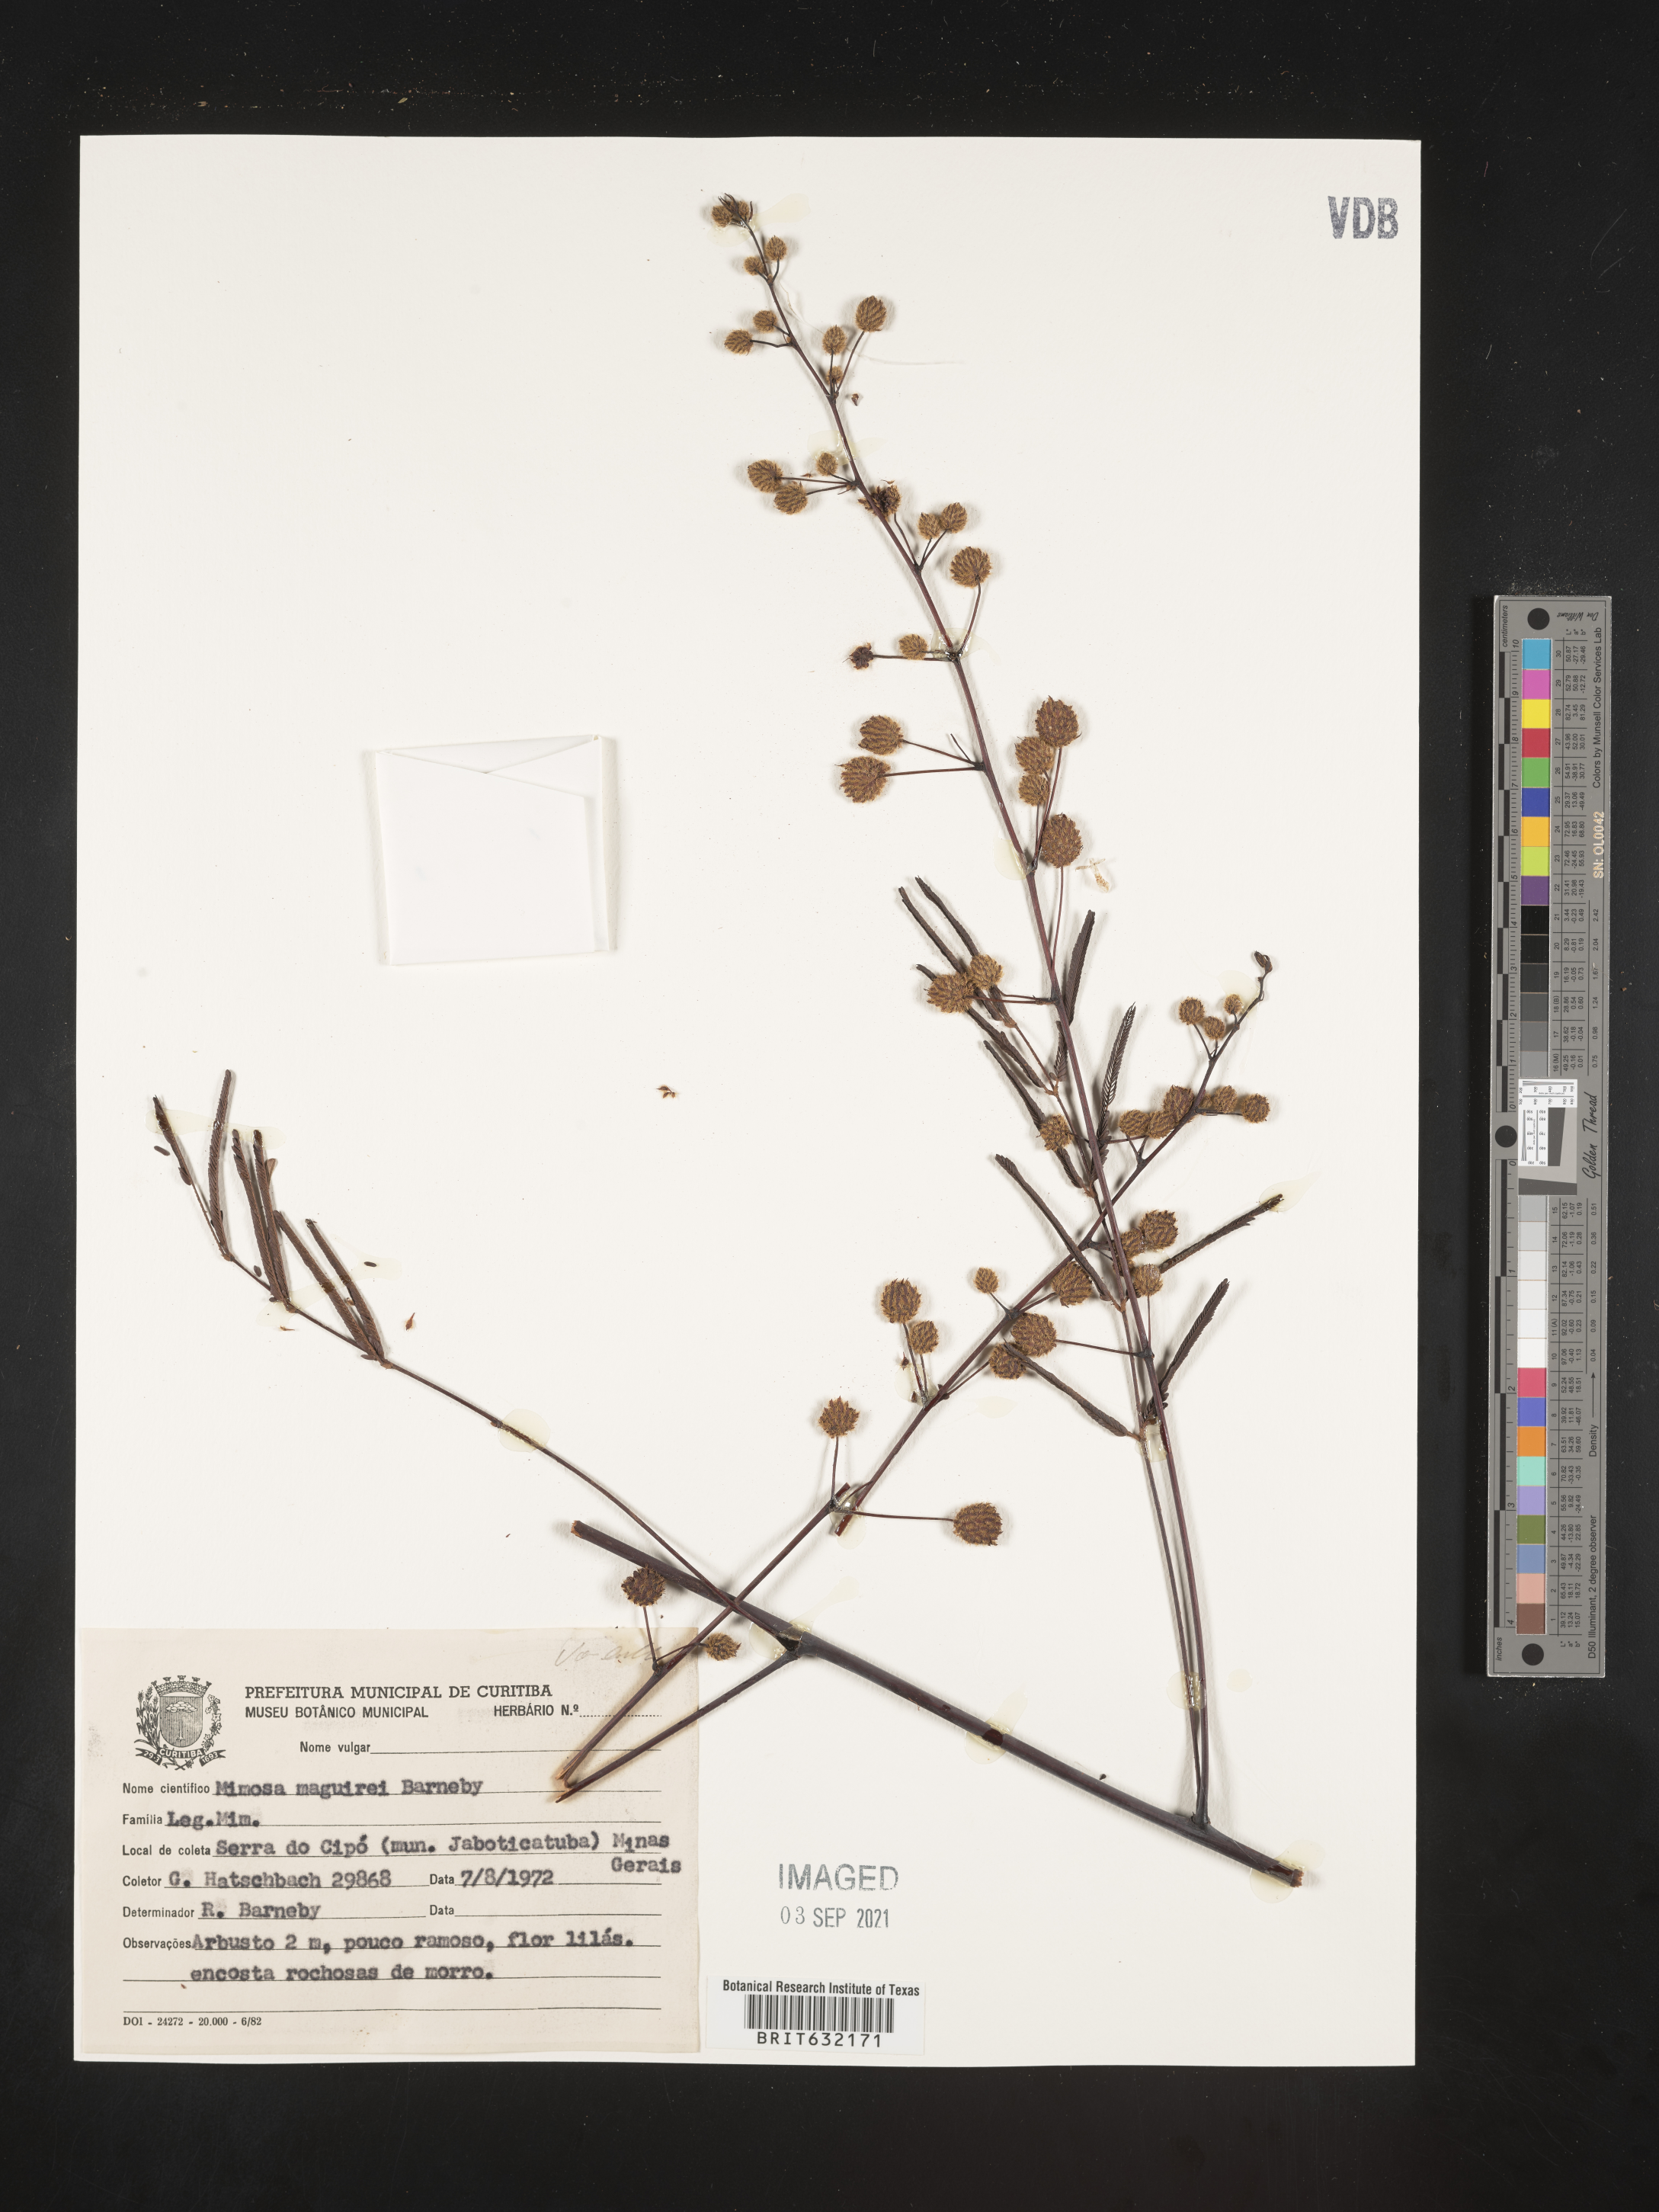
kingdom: Plantae
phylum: Tracheophyta
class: Magnoliopsida
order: Fabales
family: Fabaceae
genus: Mimosa
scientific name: Mimosa
